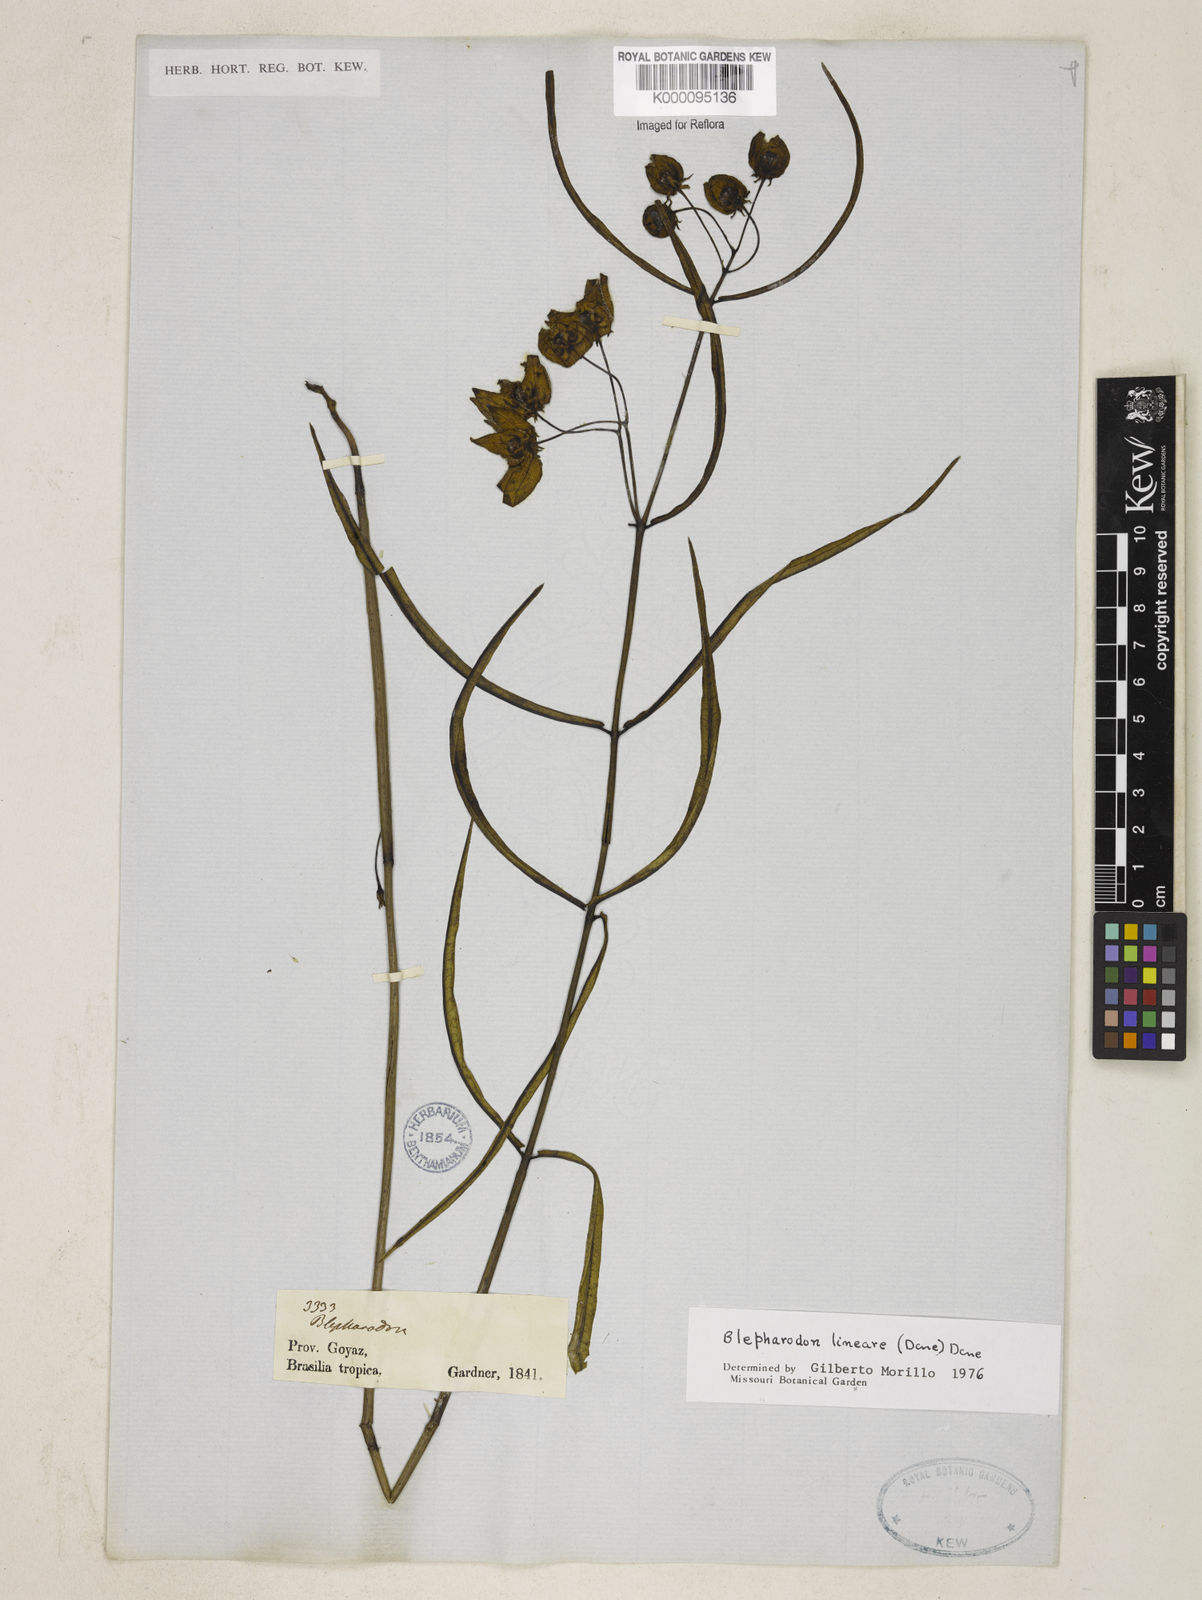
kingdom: Plantae
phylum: Tracheophyta
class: Magnoliopsida
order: Gentianales
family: Apocynaceae
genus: Blepharodon
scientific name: Blepharodon lineare
